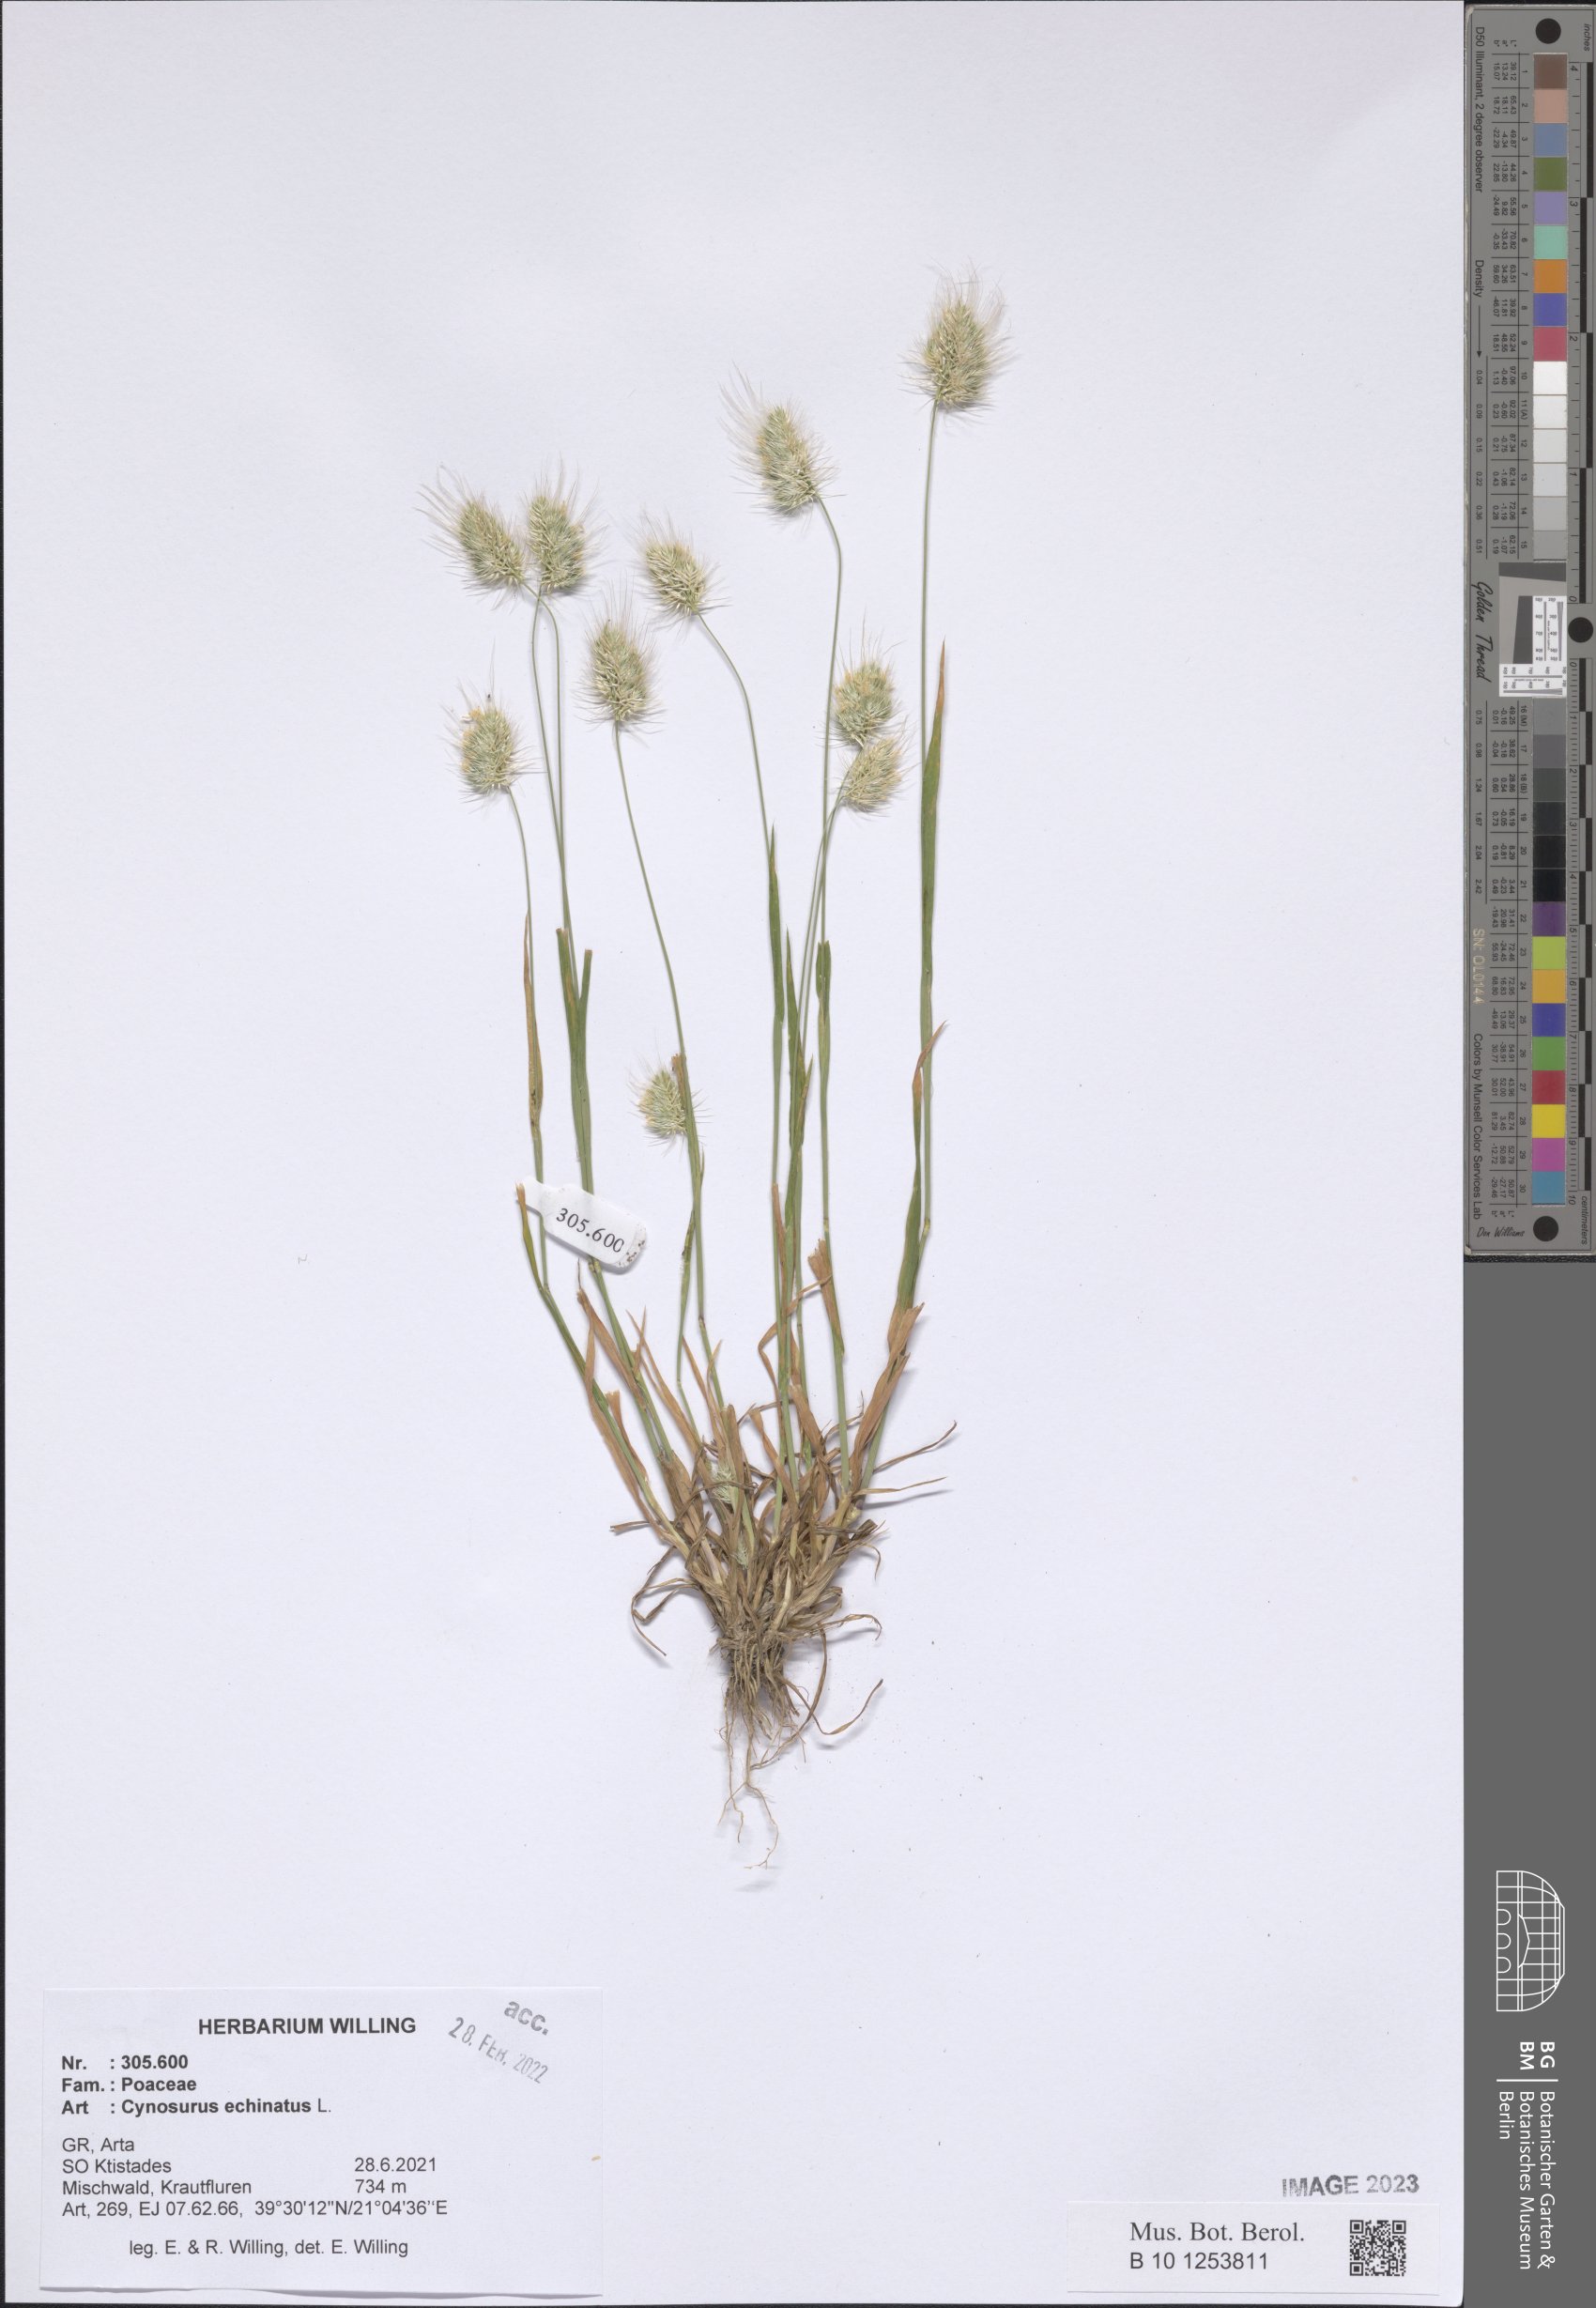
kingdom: Plantae
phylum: Tracheophyta
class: Liliopsida
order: Poales
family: Poaceae
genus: Cynosurus
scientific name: Cynosurus echinatus
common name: Rough dog's-tail
